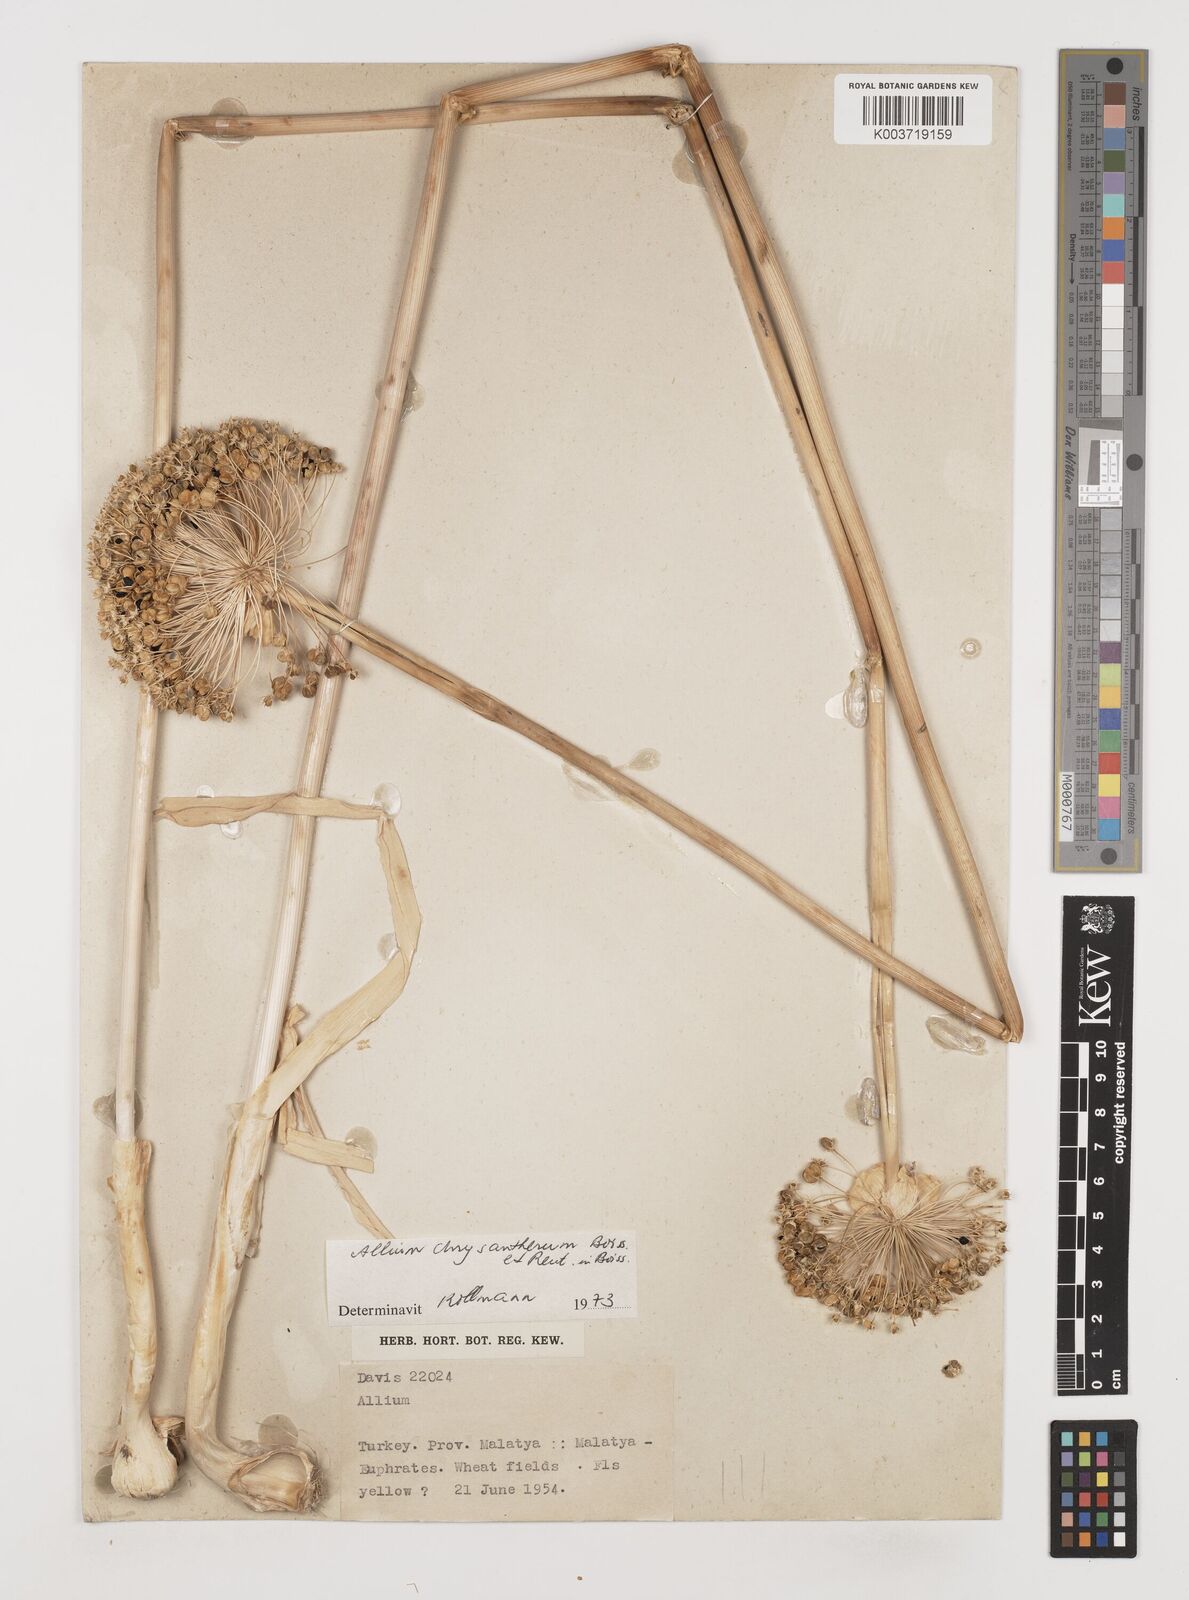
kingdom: Plantae
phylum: Tracheophyta
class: Liliopsida
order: Asparagales
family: Amaryllidaceae
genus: Allium
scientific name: Allium chrysantherum
